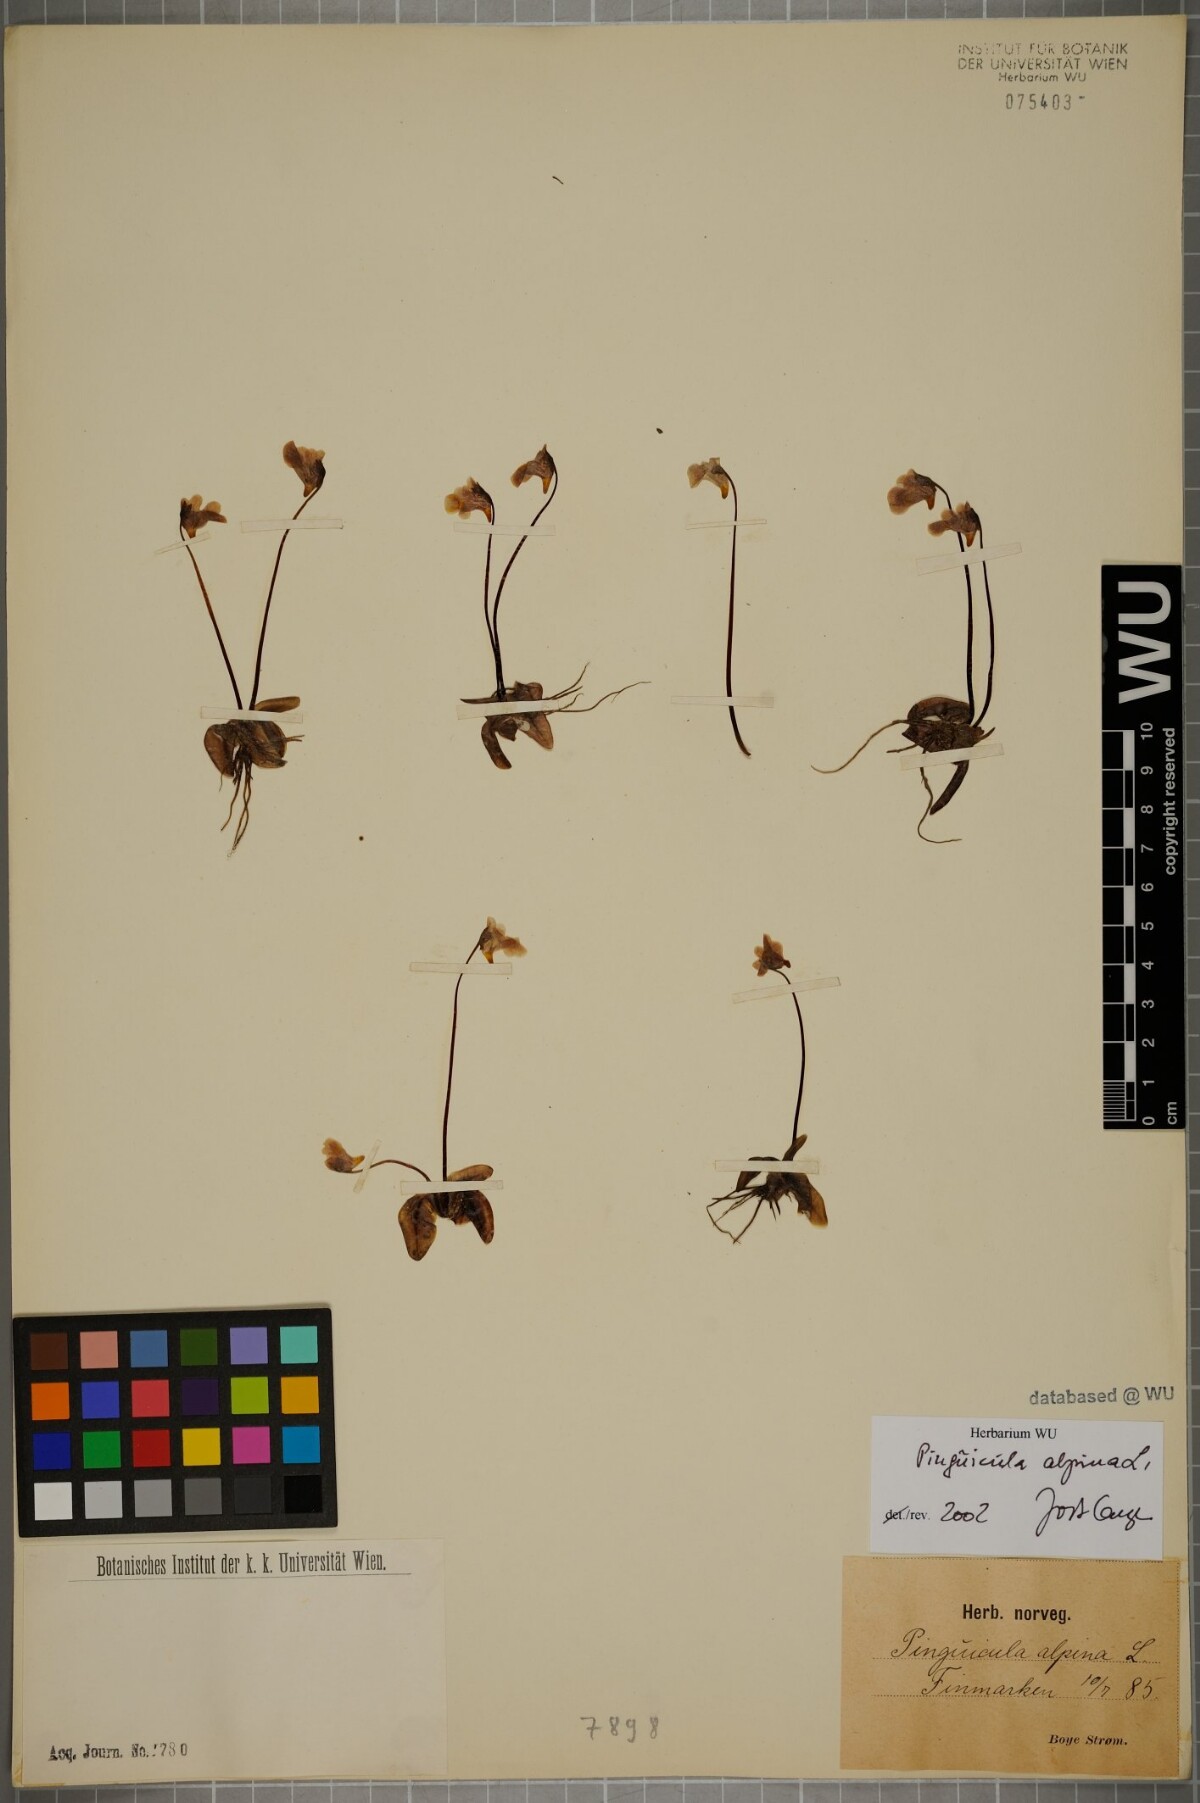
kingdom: Plantae
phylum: Tracheophyta
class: Magnoliopsida
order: Lamiales
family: Lentibulariaceae
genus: Pinguicula
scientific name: Pinguicula alpina
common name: Alpine butterwort
